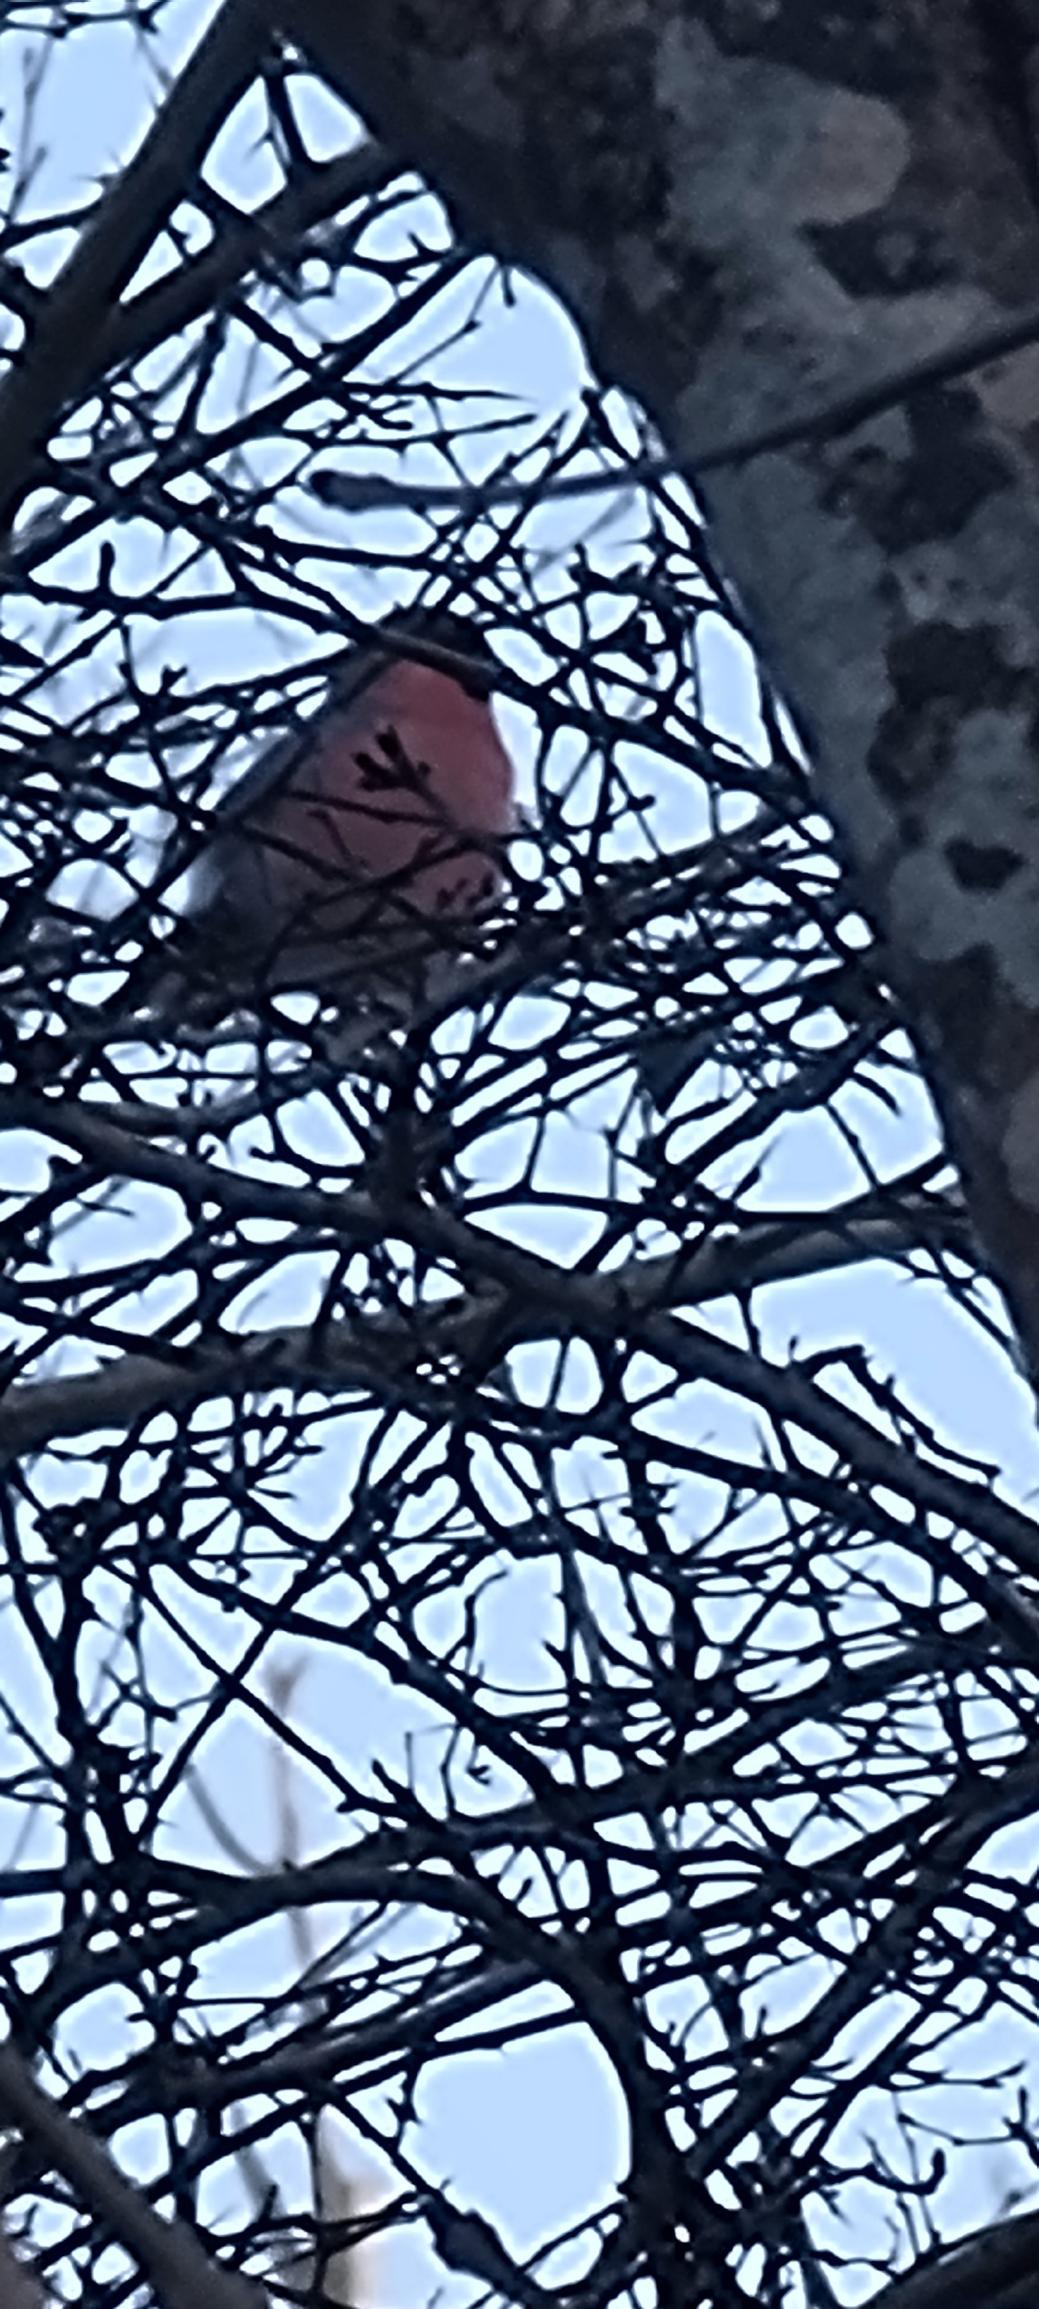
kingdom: Animalia
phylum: Chordata
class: Aves
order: Passeriformes
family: Fringillidae
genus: Pyrrhula
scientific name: Pyrrhula pyrrhula
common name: Dompap
